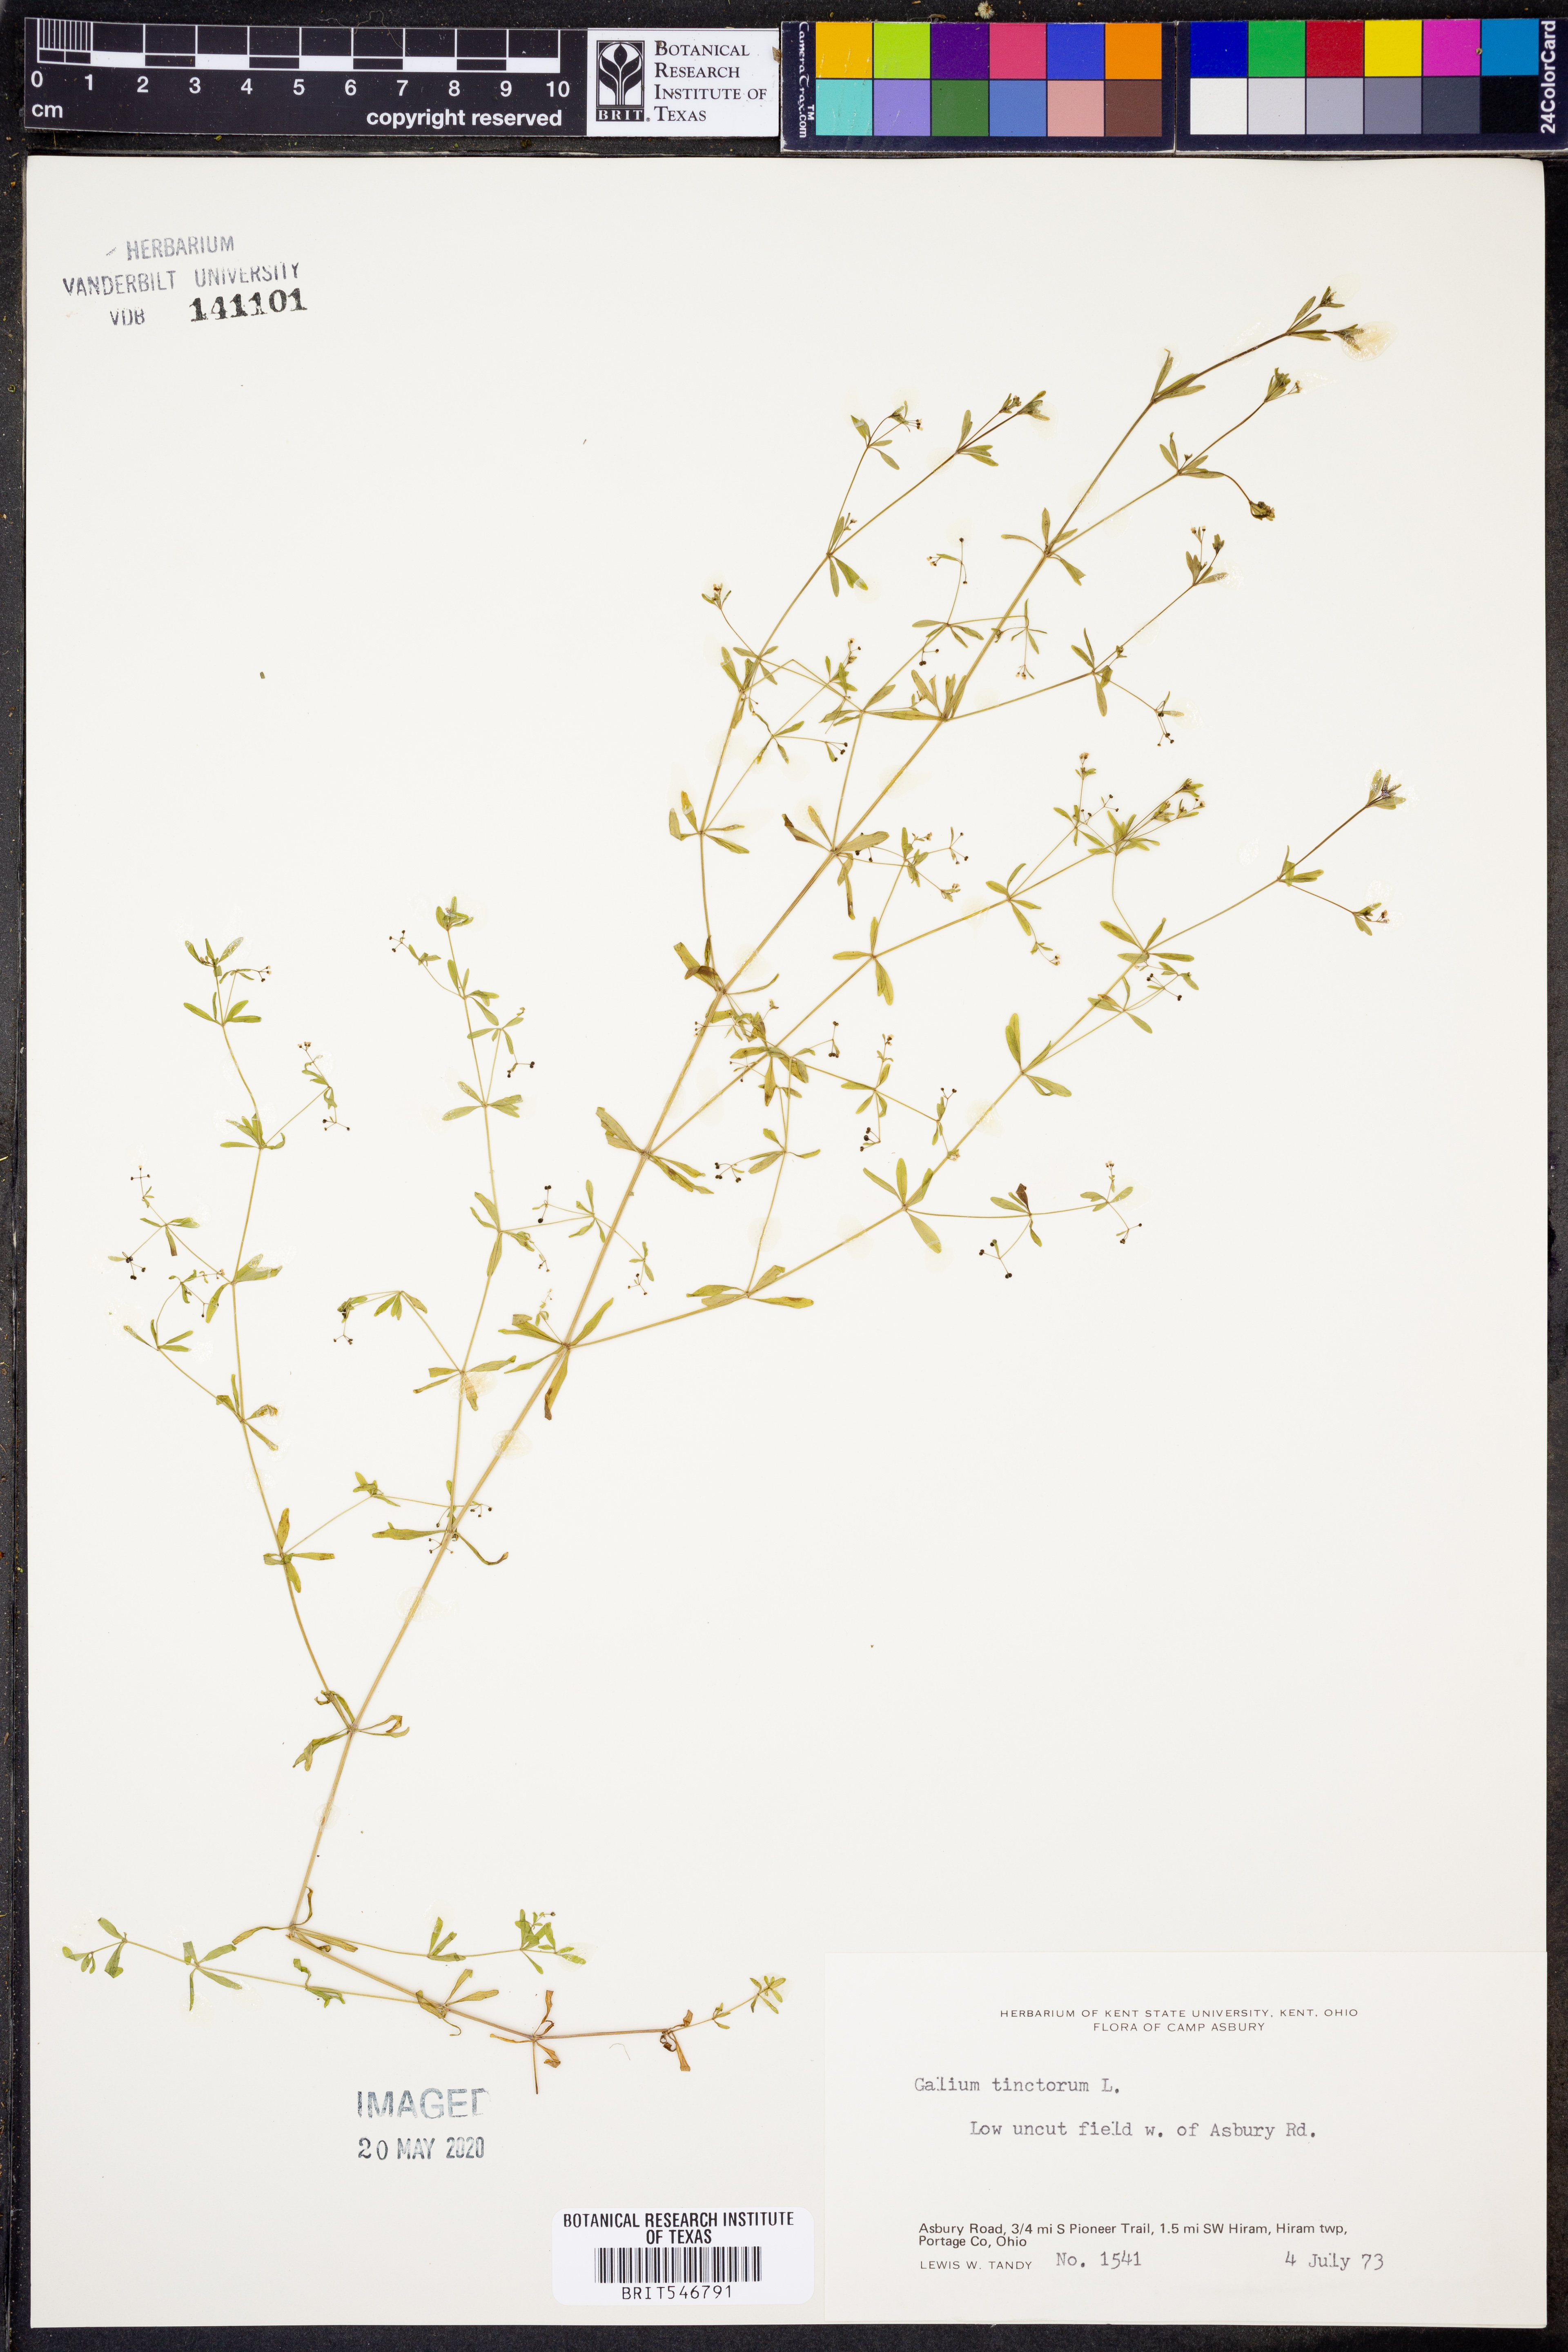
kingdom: Plantae
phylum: Tracheophyta
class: Magnoliopsida
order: Gentianales
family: Rubiaceae
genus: Asperula
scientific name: Asperula tinctoria
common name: Dyer's woodruff
